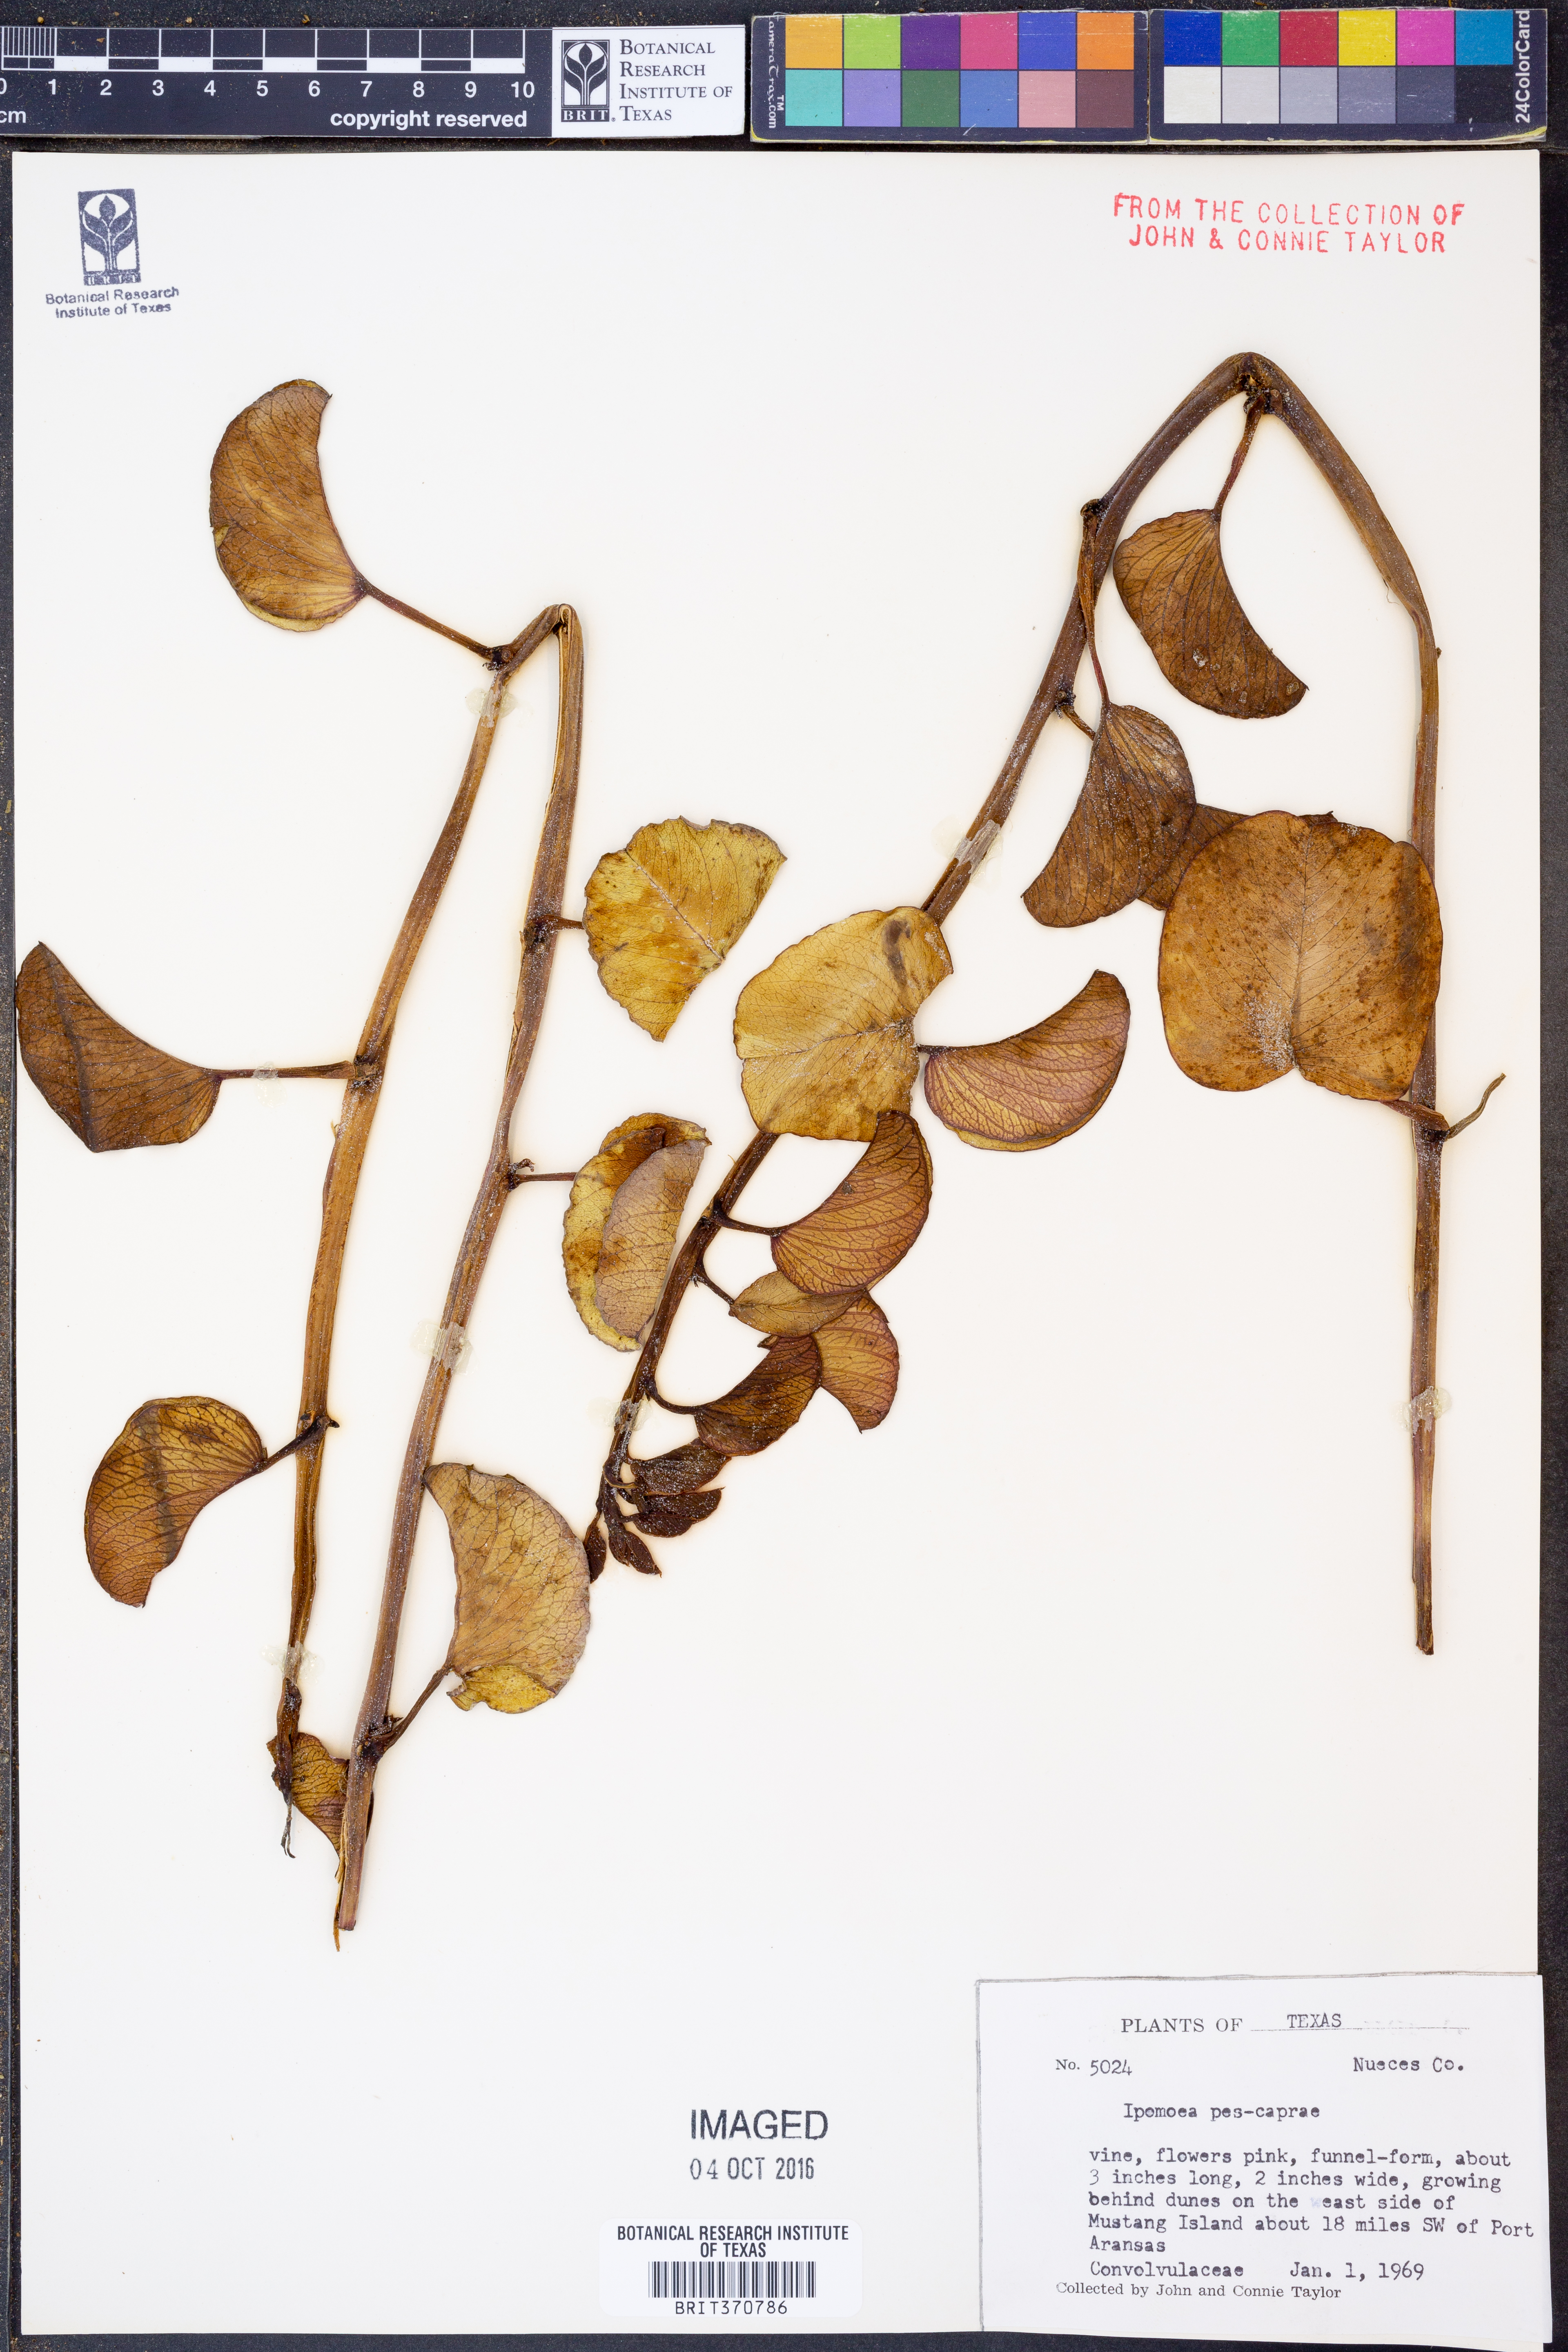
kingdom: Plantae
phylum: Tracheophyta
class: Magnoliopsida
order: Solanales
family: Convolvulaceae
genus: Ipomoea
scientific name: Ipomoea pes-caprae
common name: Beach morning glory
